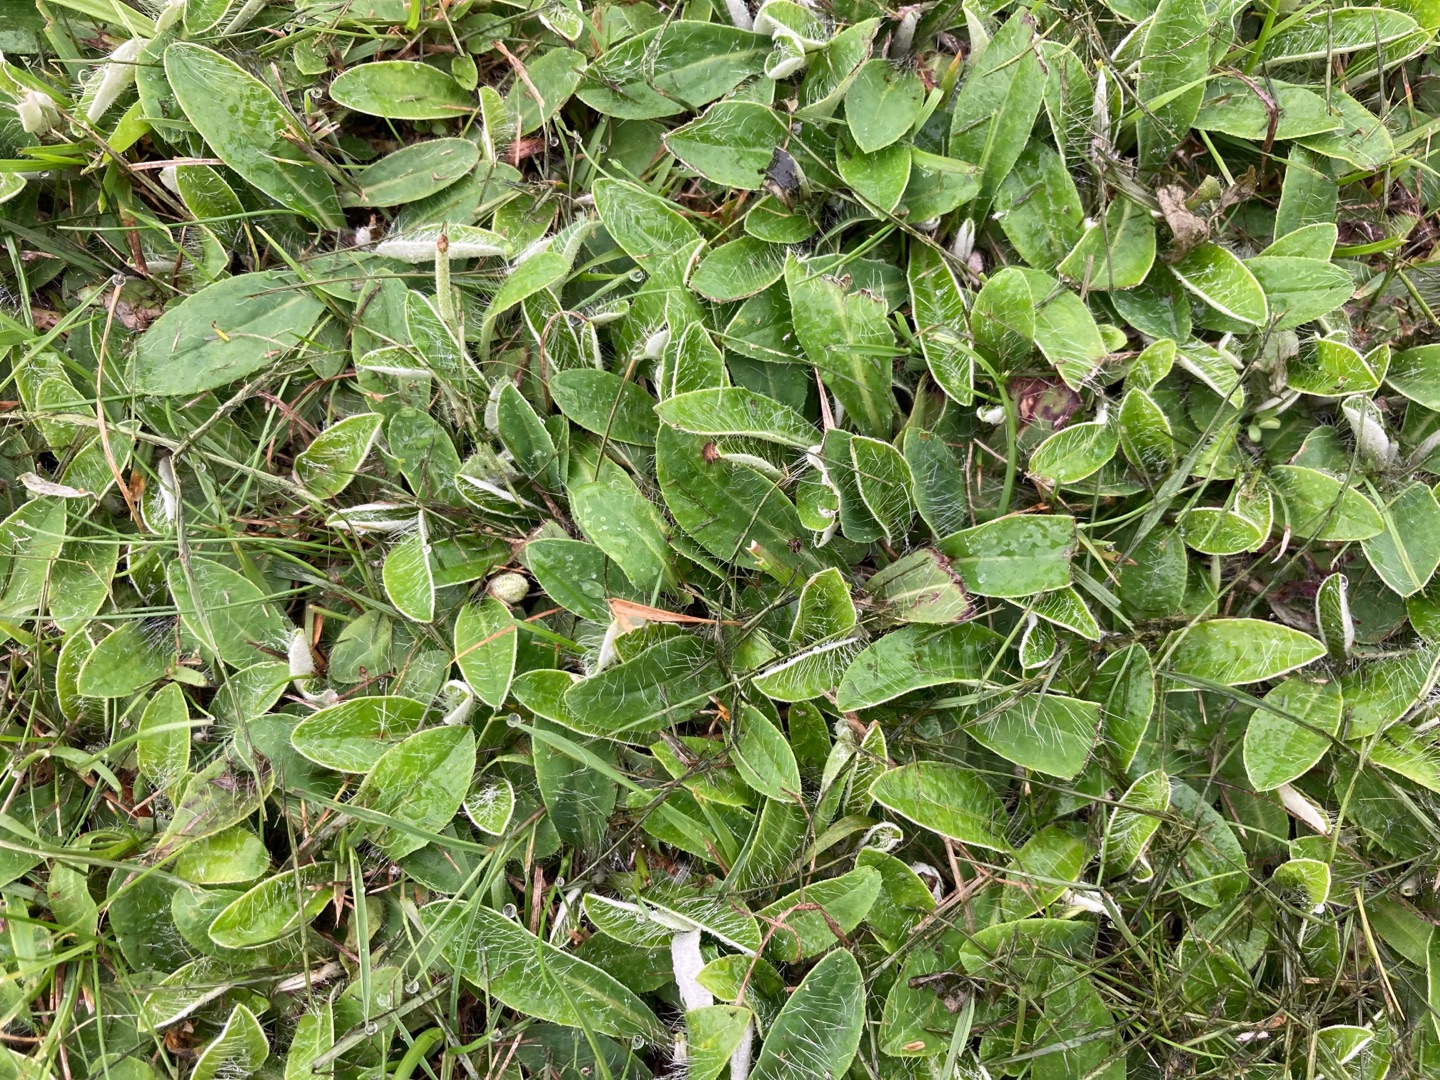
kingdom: Plantae
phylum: Tracheophyta
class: Magnoliopsida
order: Asterales
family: Asteraceae
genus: Pilosella
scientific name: Pilosella officinarum
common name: Håret høgeurt
